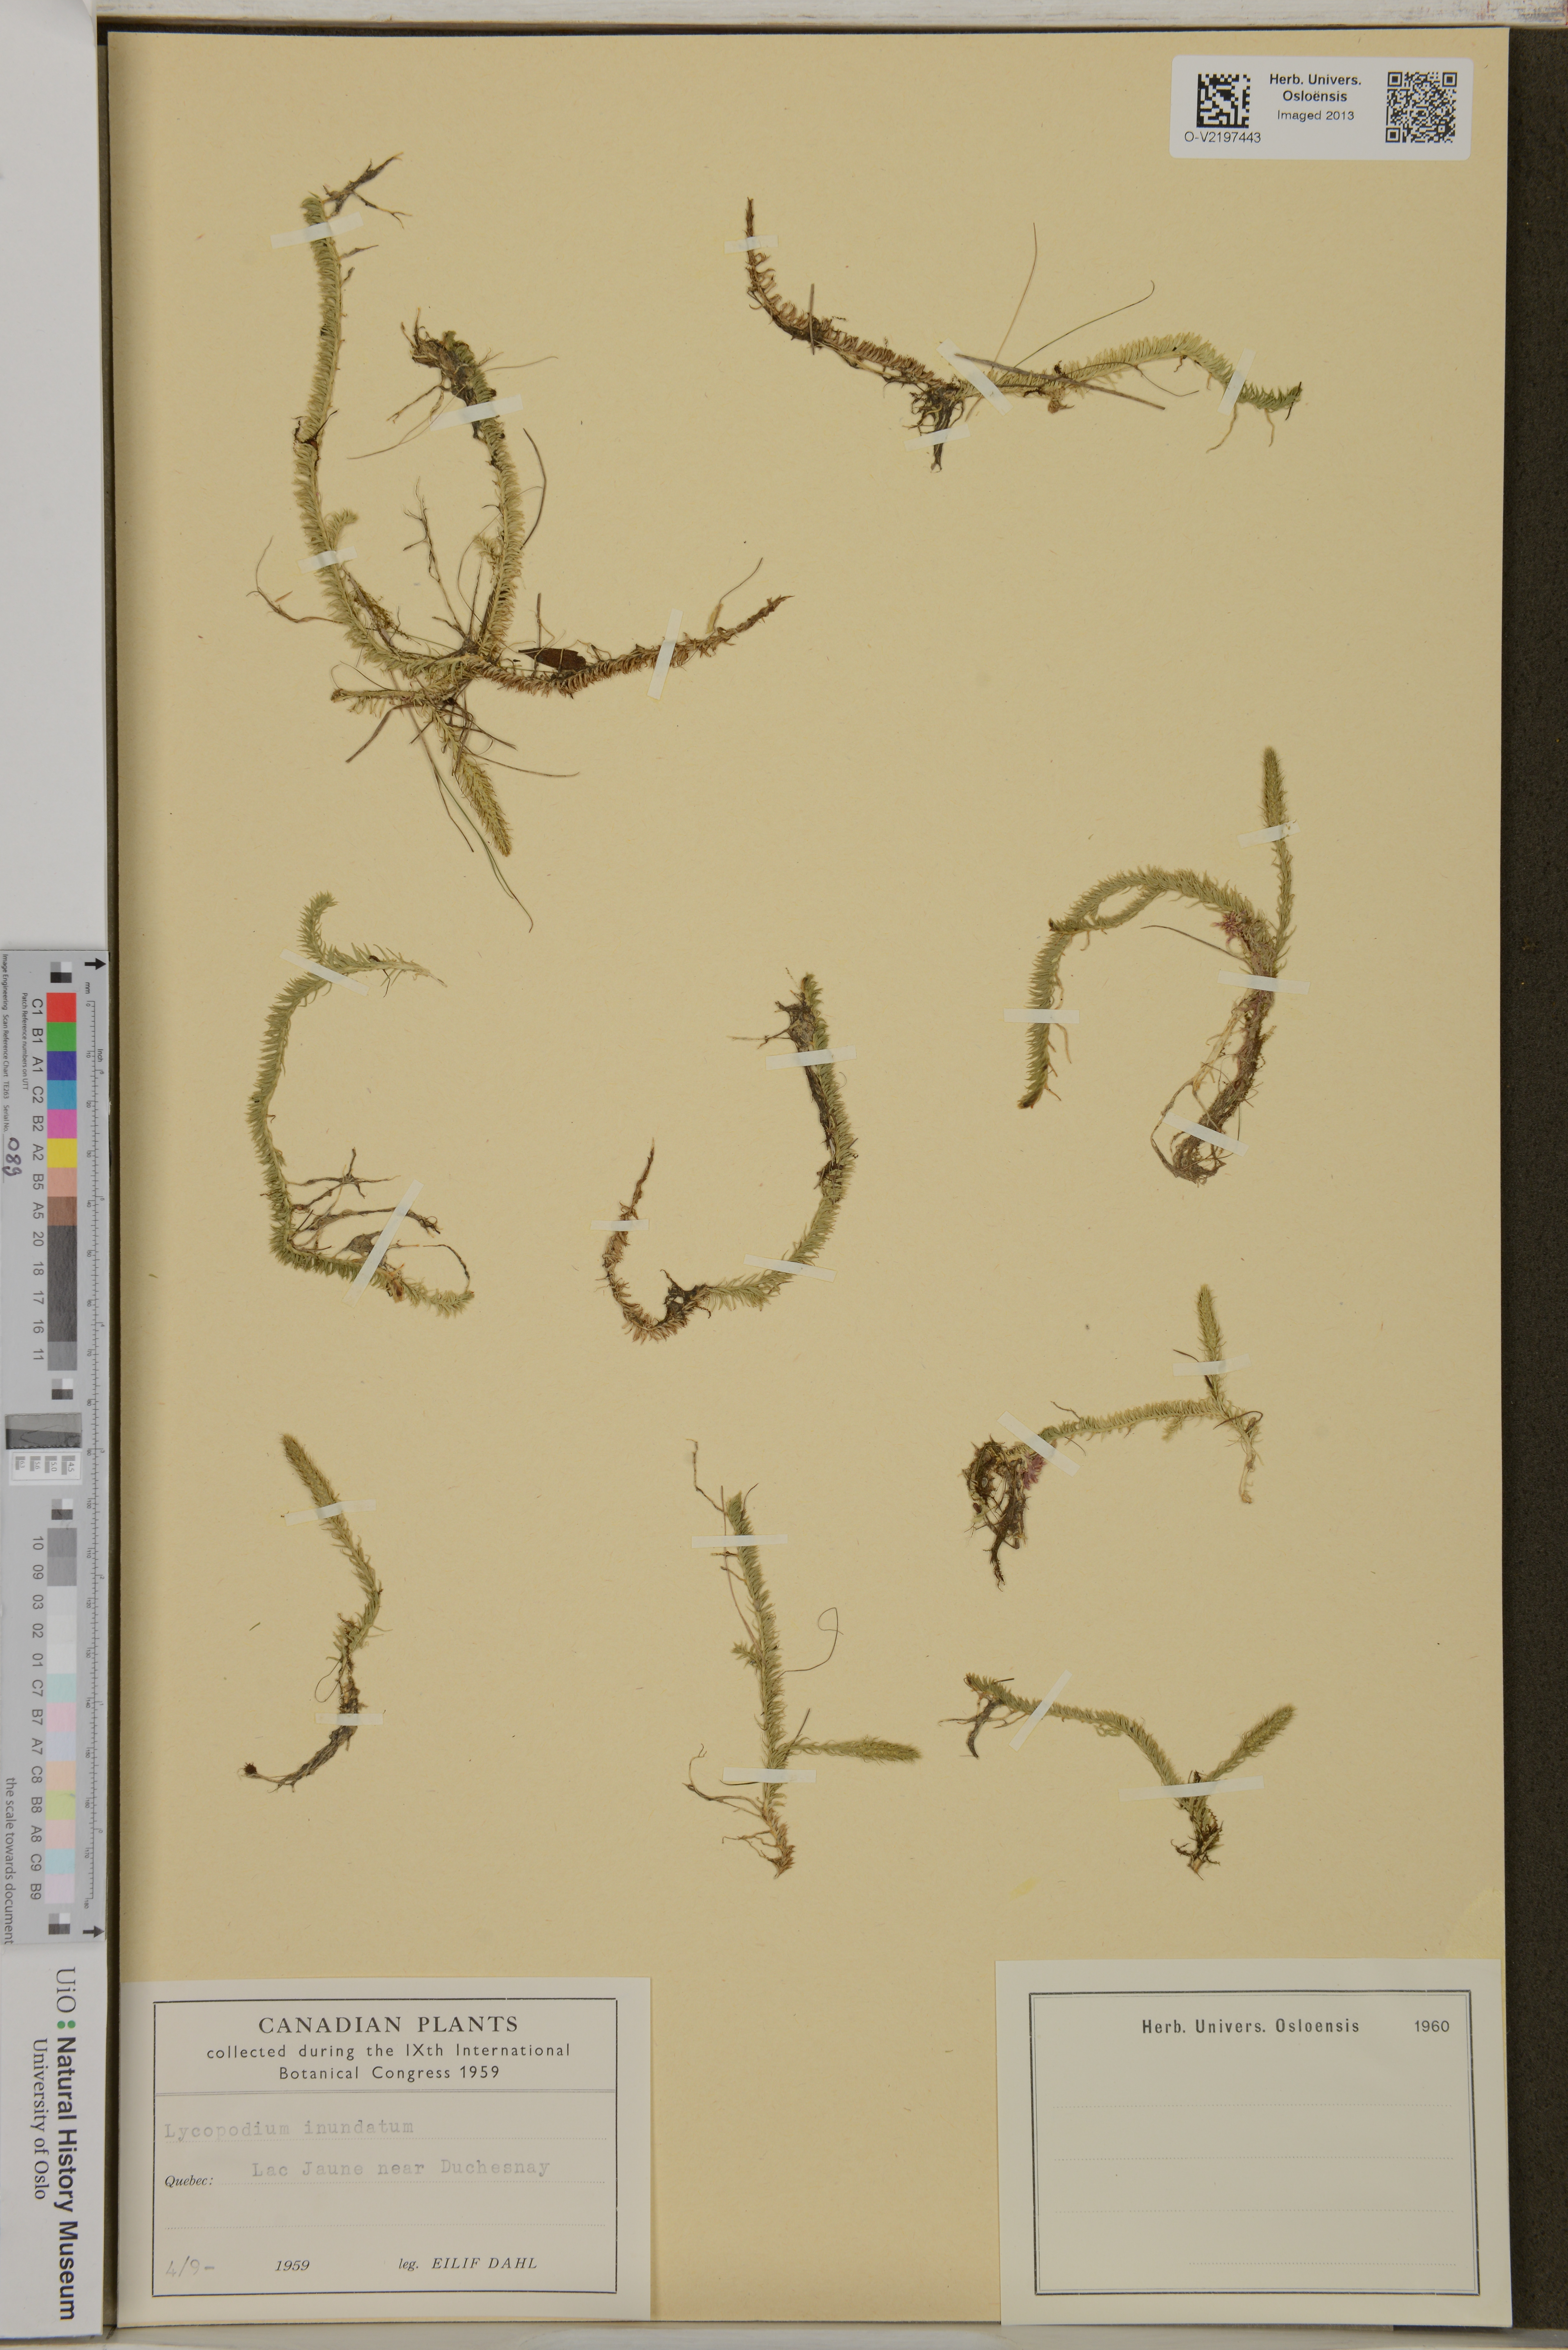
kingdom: Plantae
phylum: Tracheophyta
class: Lycopodiopsida
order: Lycopodiales
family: Lycopodiaceae
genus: Lycopodiella
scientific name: Lycopodiella inundata
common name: Marsh clubmoss
